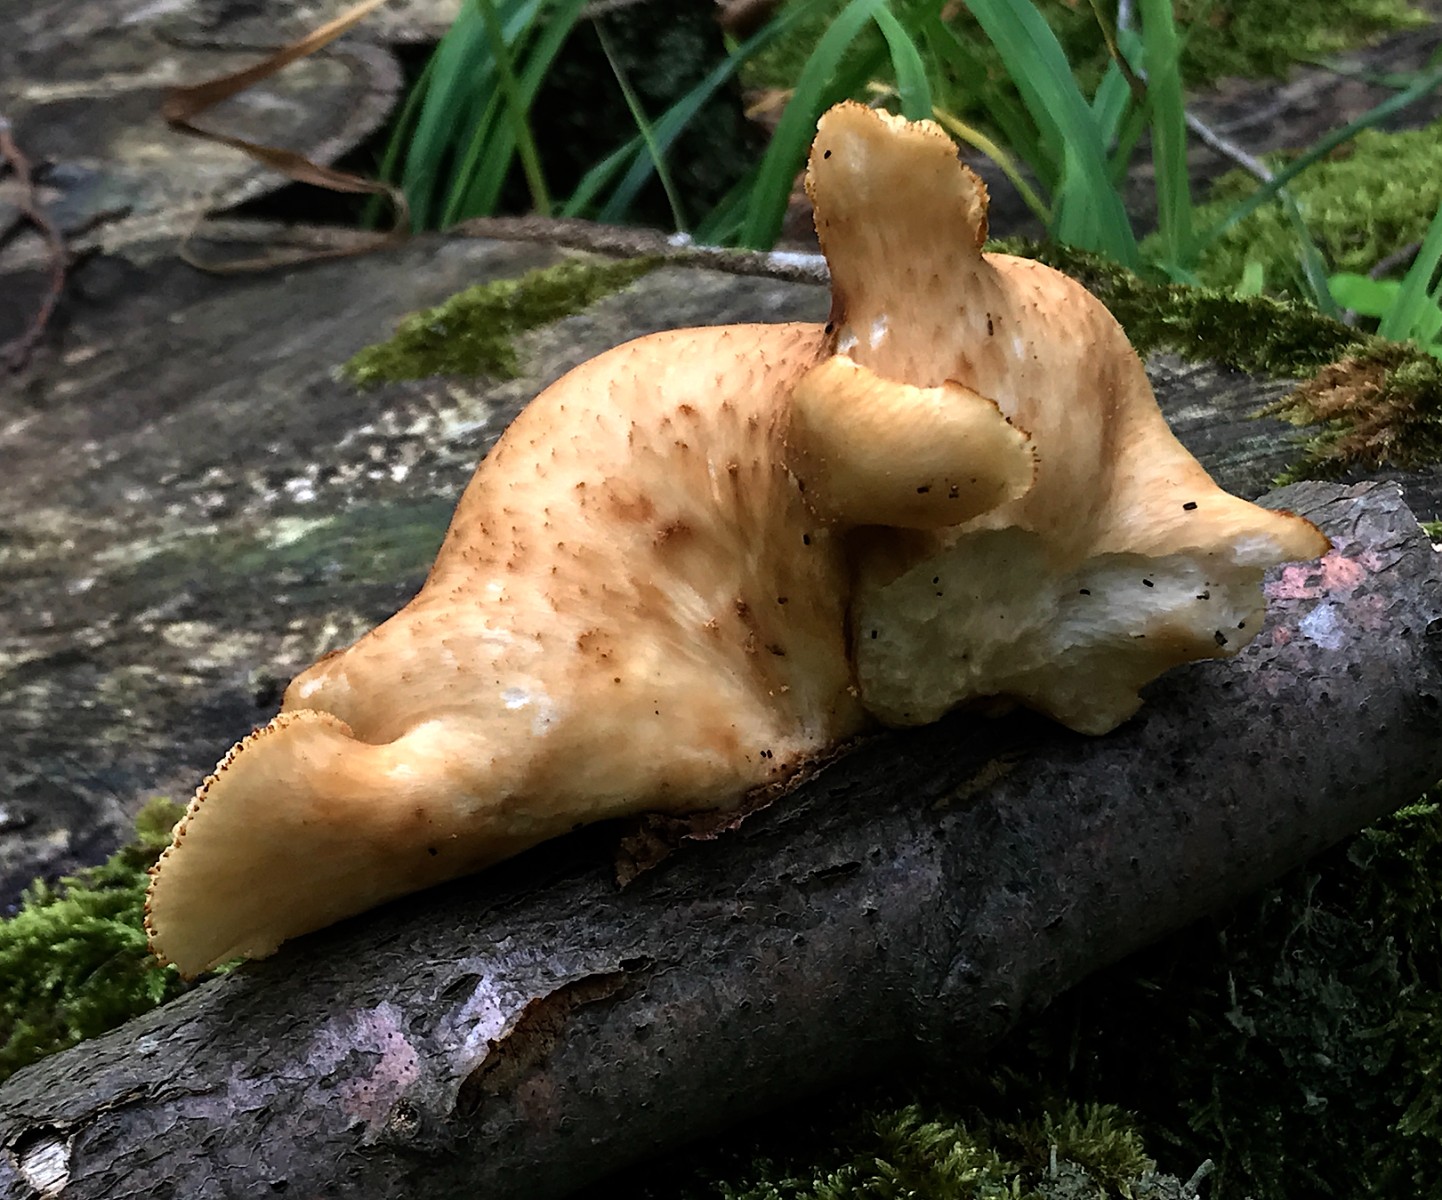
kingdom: Fungi
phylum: Basidiomycota
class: Agaricomycetes
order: Polyporales
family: Polyporaceae
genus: Polyporus
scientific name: Polyporus tuberaster
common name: knoldet stilkporesvamp
